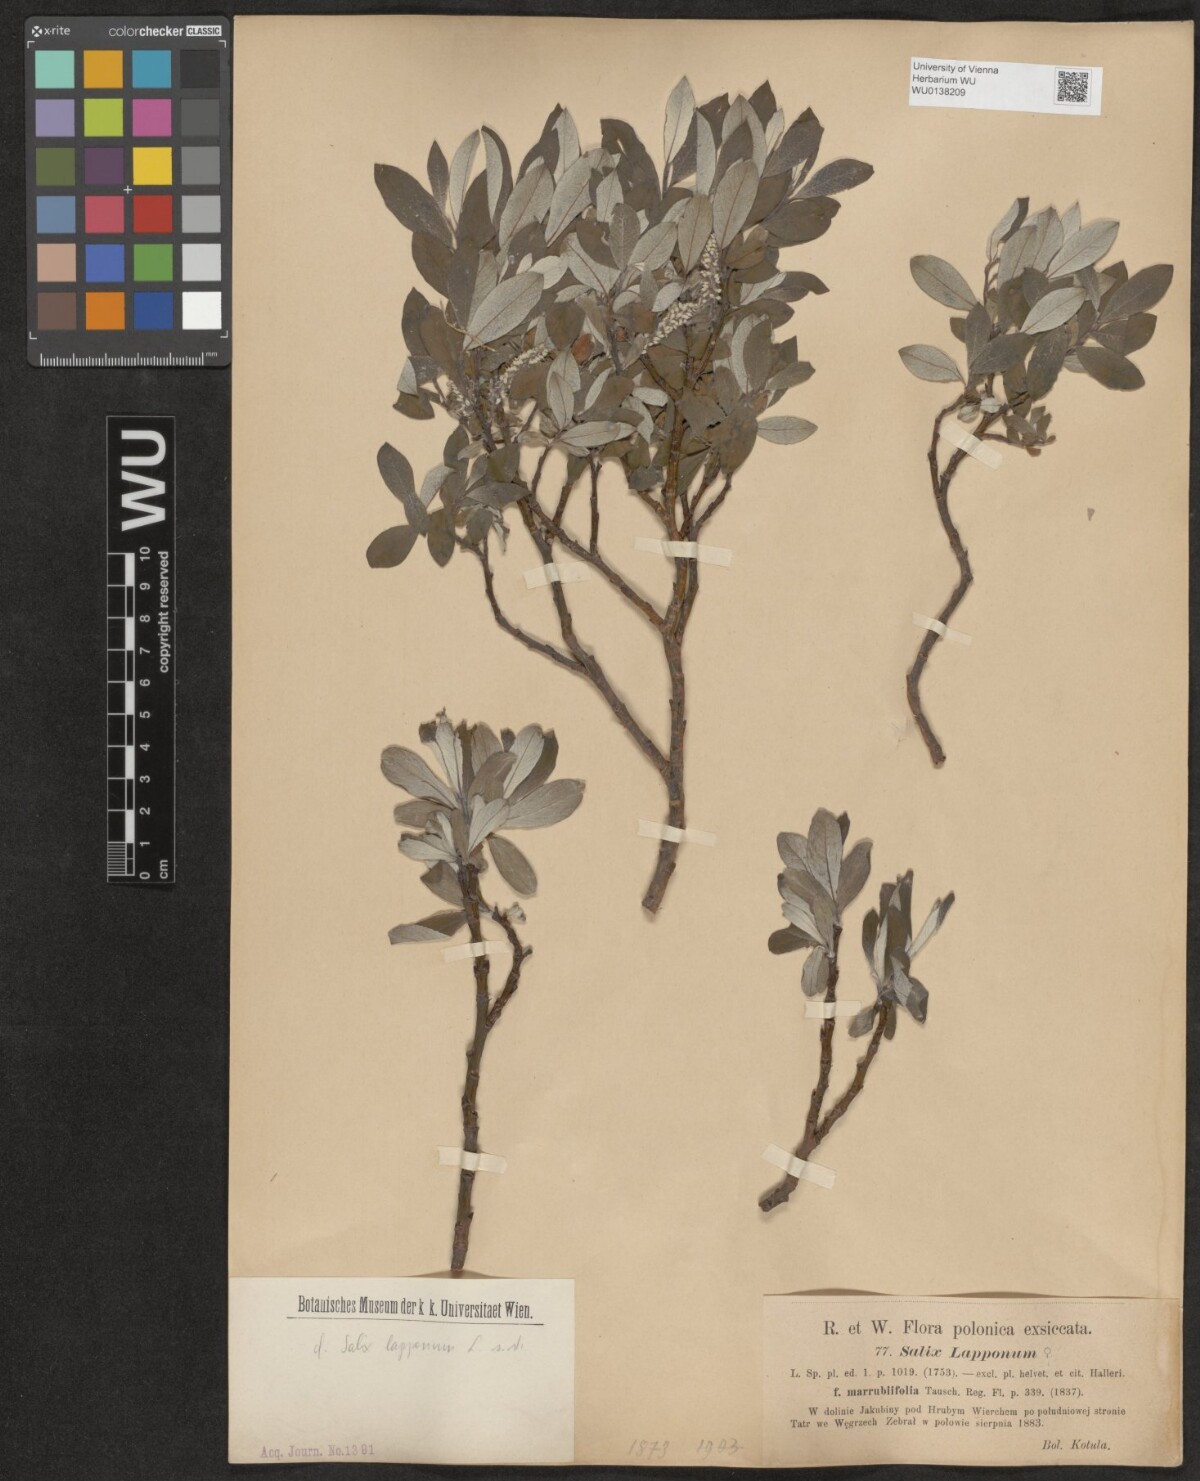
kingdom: Plantae
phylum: Tracheophyta
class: Magnoliopsida
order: Malpighiales
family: Salicaceae
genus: Salix
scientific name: Salix lapponum
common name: Downy willow
